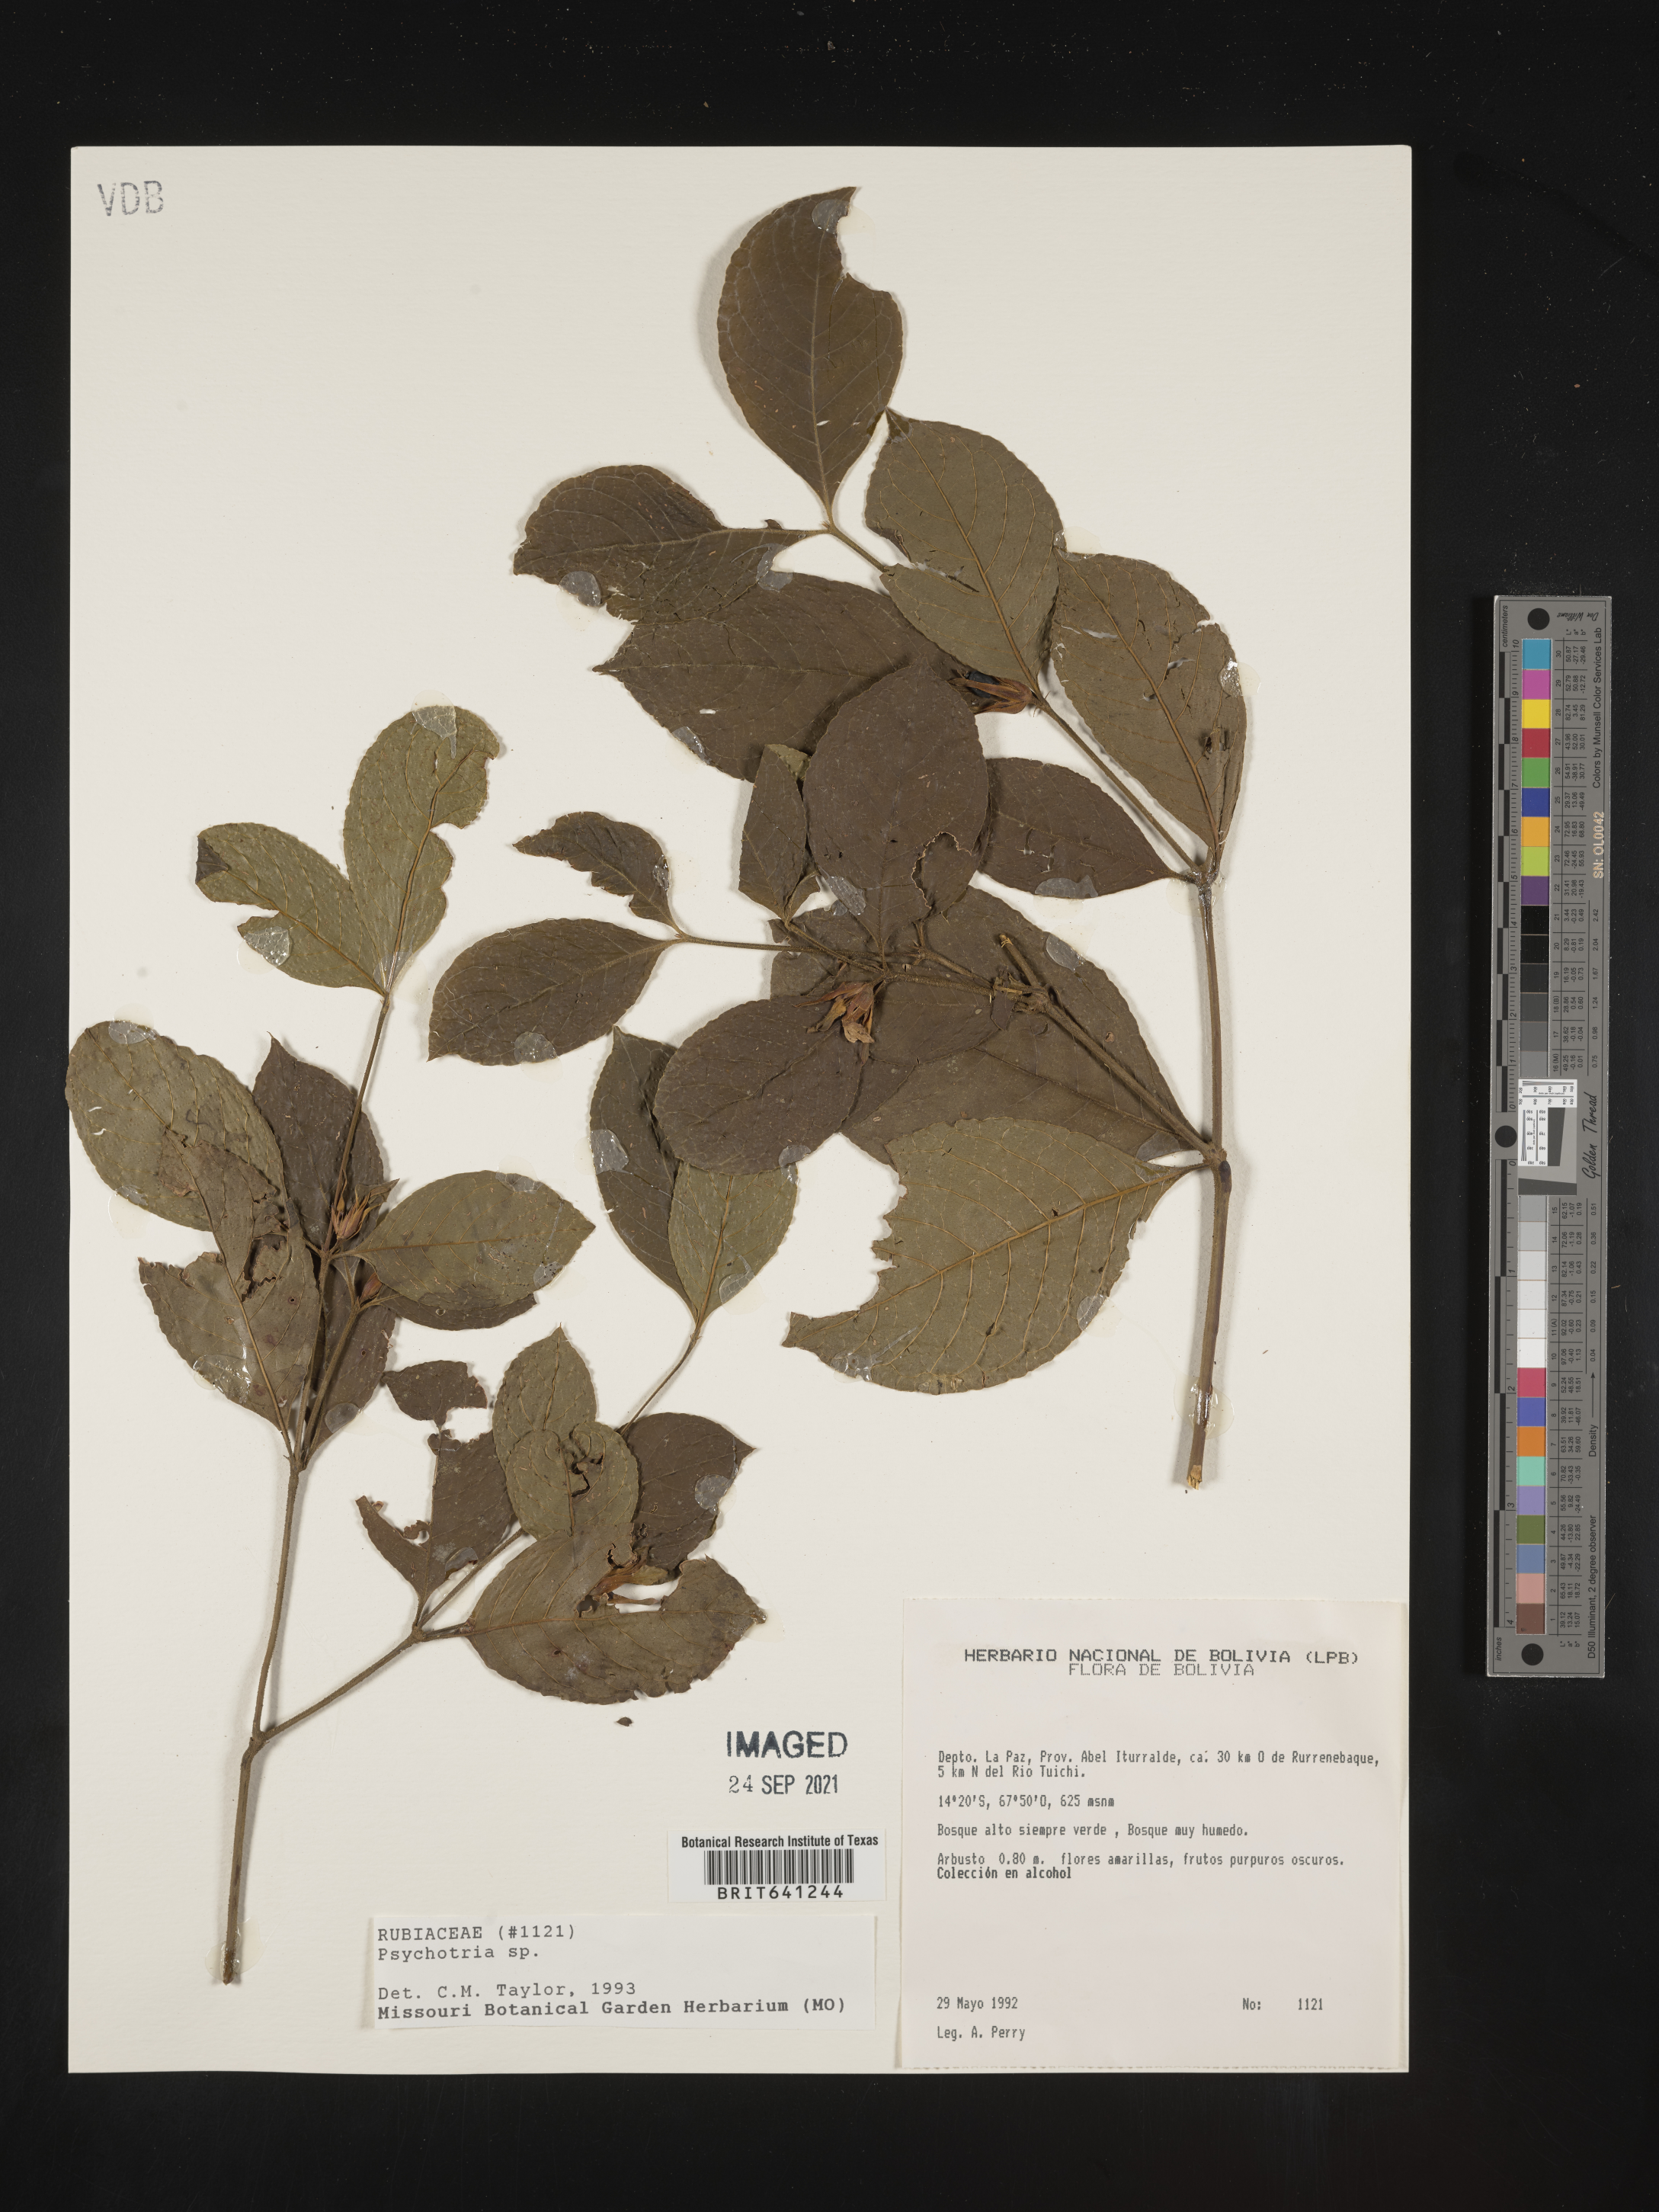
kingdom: Plantae
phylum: Tracheophyta
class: Magnoliopsida
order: Gentianales
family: Rubiaceae
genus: Psychotria
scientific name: Psychotria
